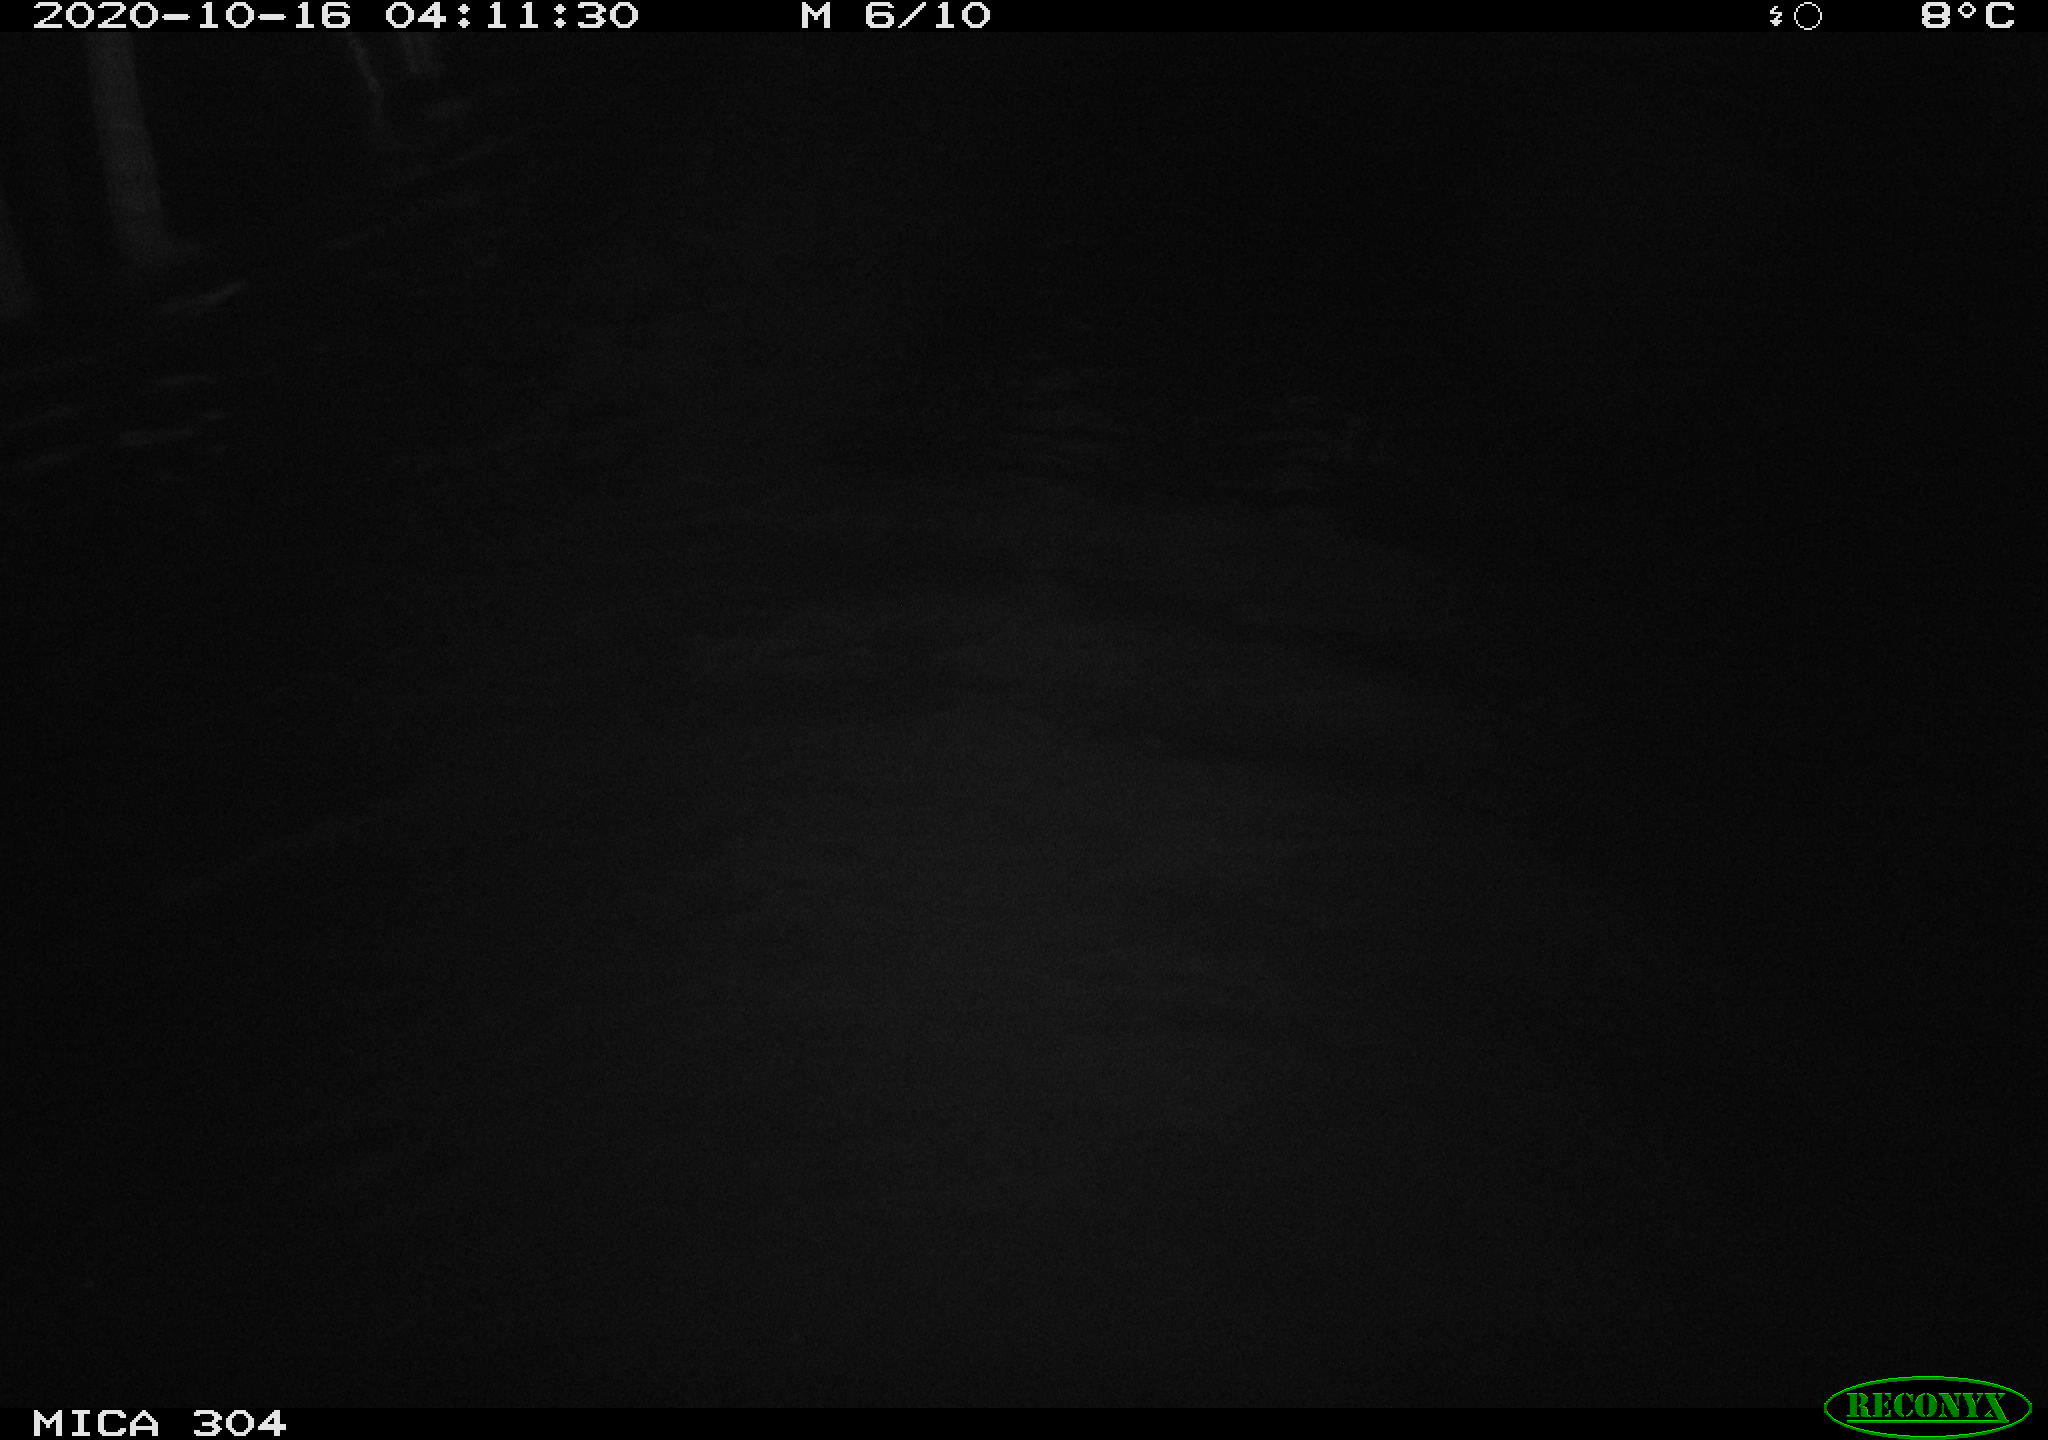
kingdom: Animalia
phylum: Chordata
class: Mammalia
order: Rodentia
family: Cricetidae
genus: Ondatra
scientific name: Ondatra zibethicus
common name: Muskrat
